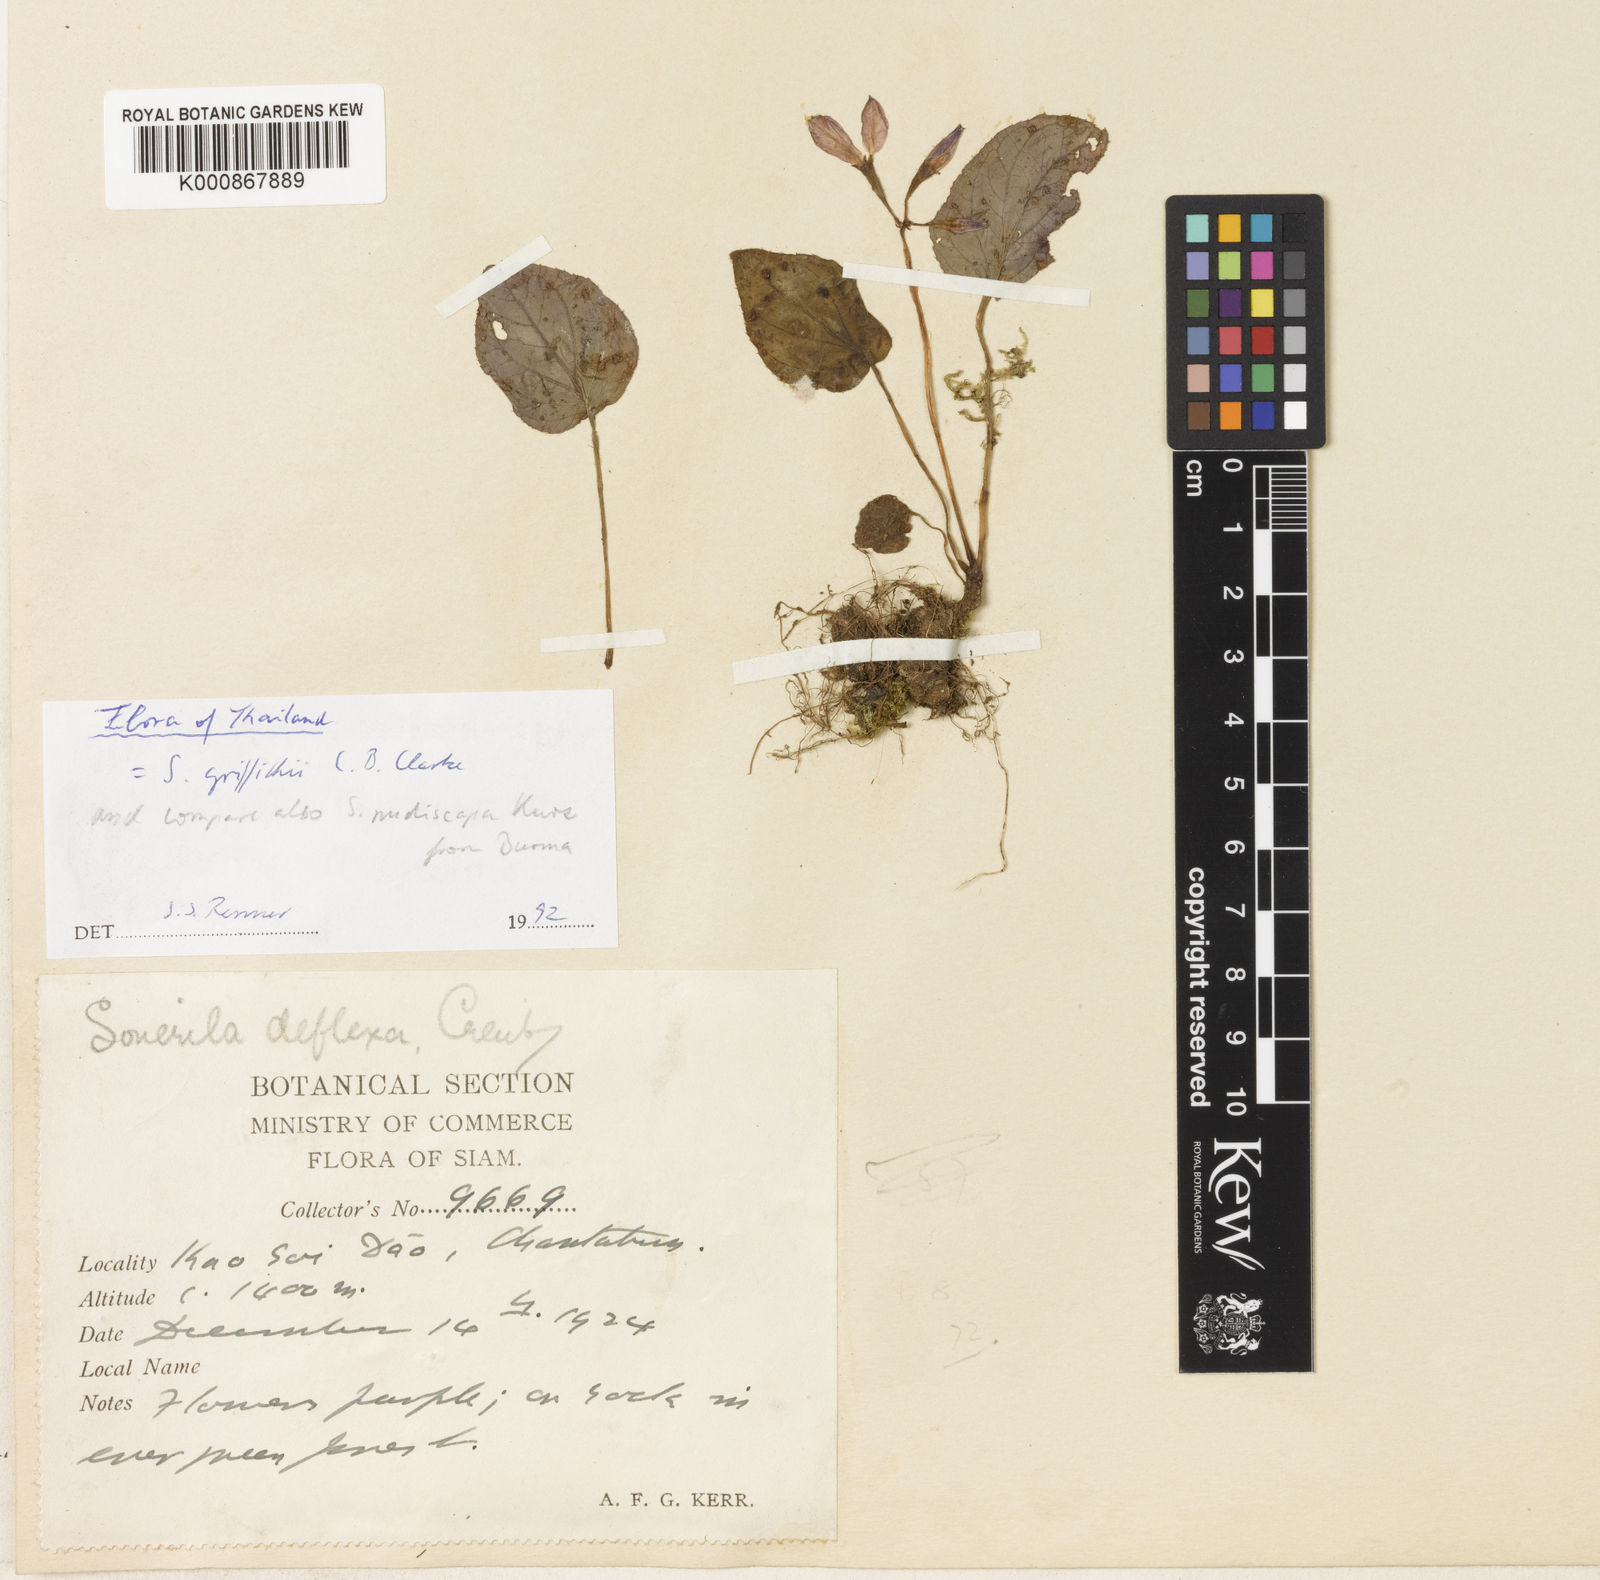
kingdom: Plantae
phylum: Tracheophyta
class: Magnoliopsida
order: Myrtales
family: Melastomataceae
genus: Sonerila
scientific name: Sonerila griffithii
